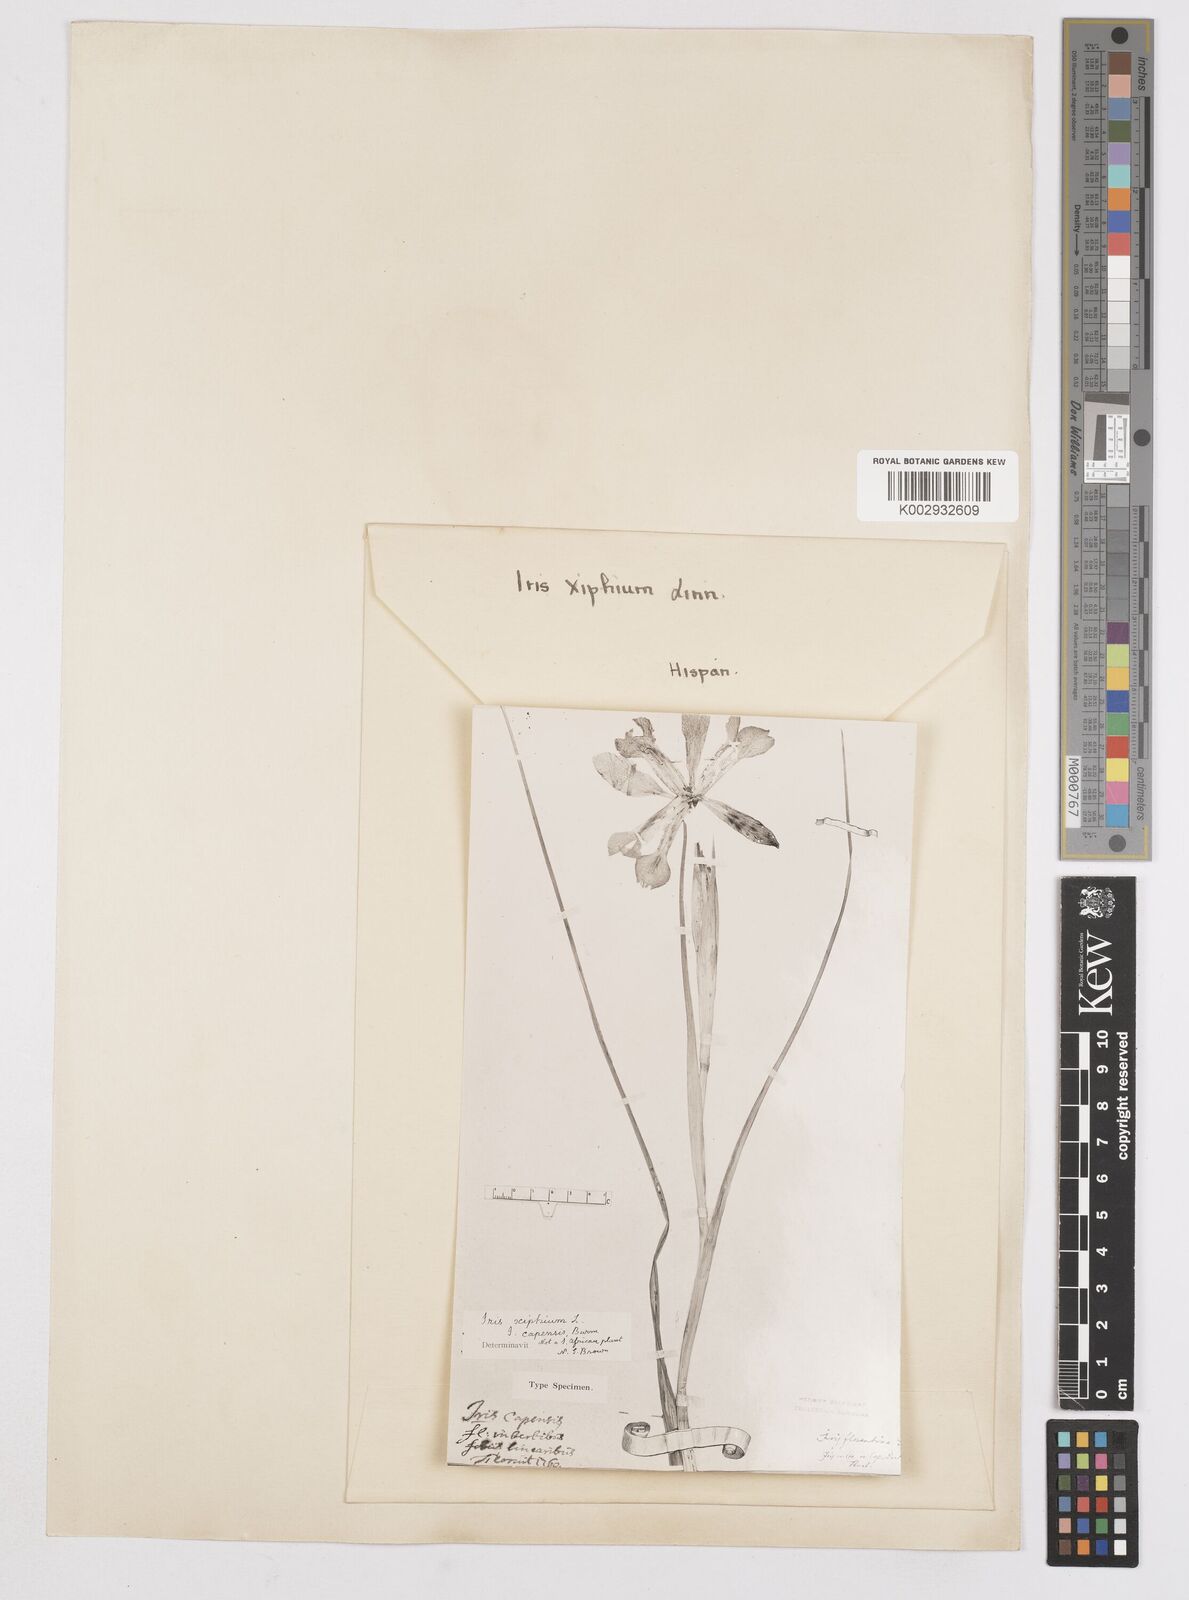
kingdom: Plantae
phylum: Tracheophyta
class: Liliopsida
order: Asparagales
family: Iridaceae
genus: Iris
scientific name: Iris xiphium
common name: Spanish iris
